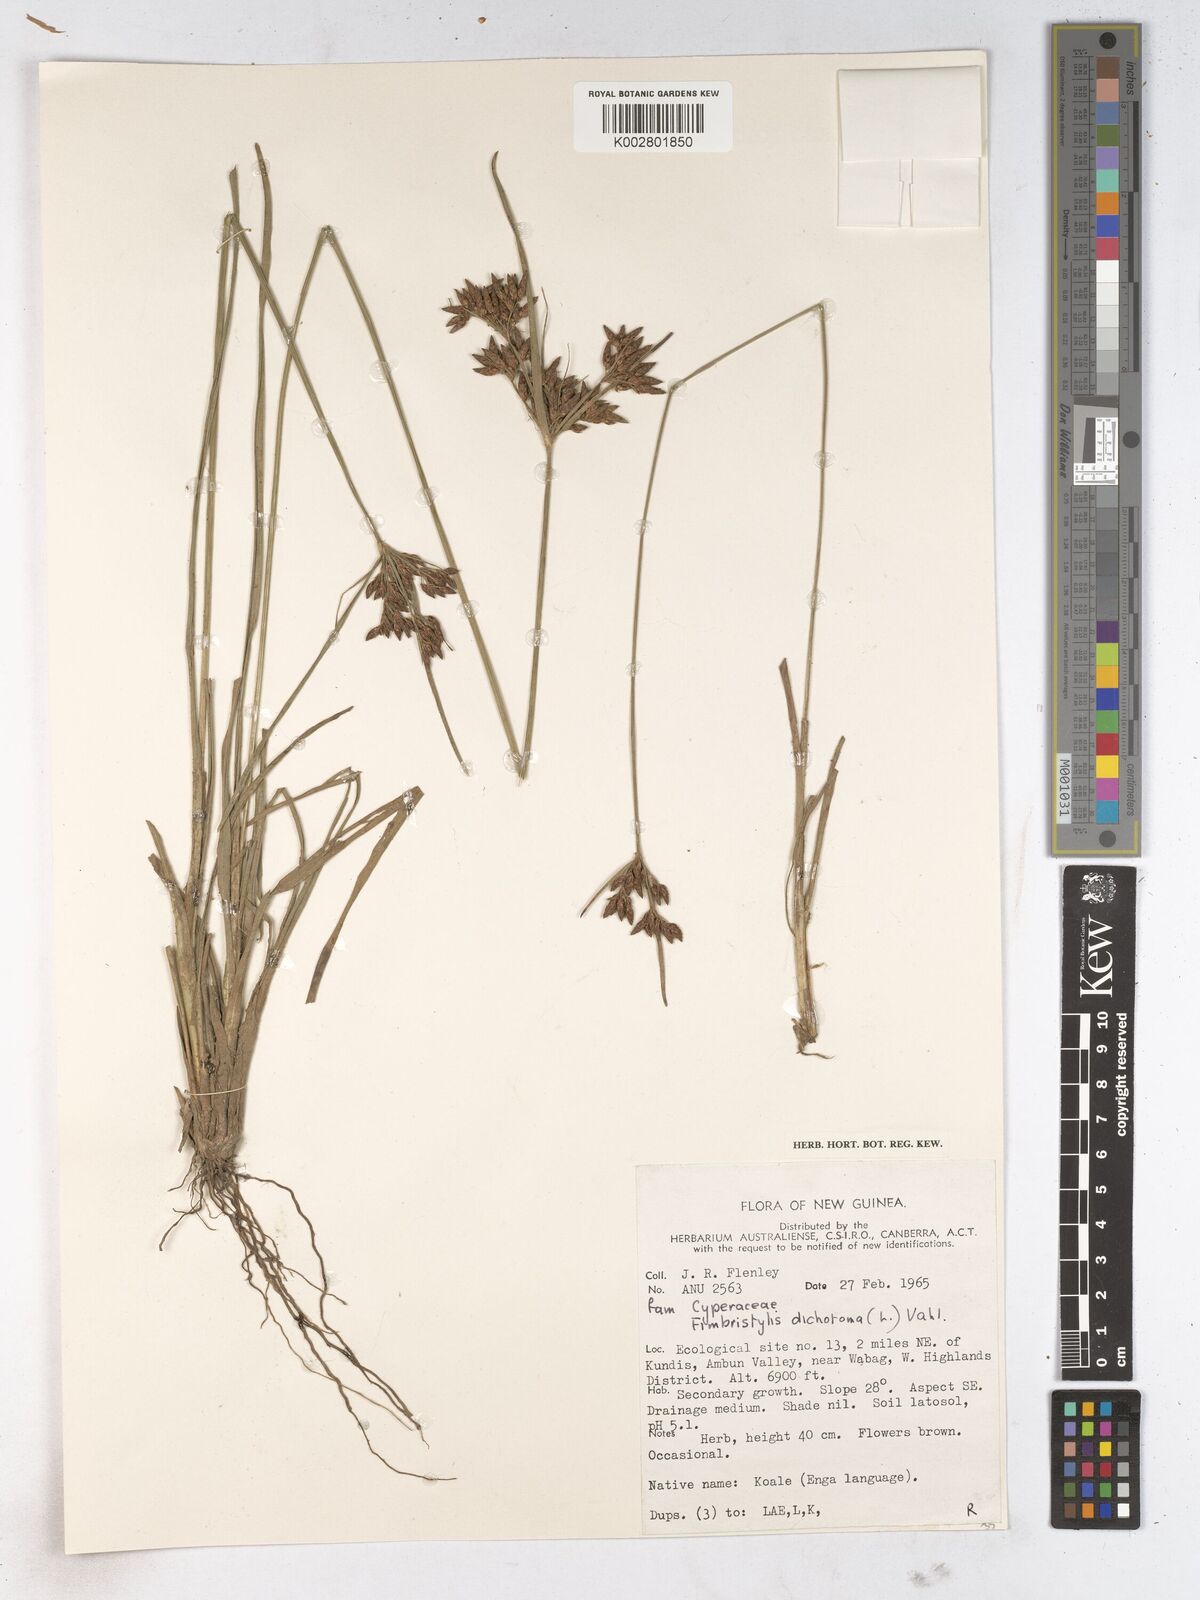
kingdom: Plantae
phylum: Tracheophyta
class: Liliopsida
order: Poales
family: Cyperaceae
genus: Fimbristylis
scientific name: Fimbristylis dichotoma
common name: Forked fimbry
